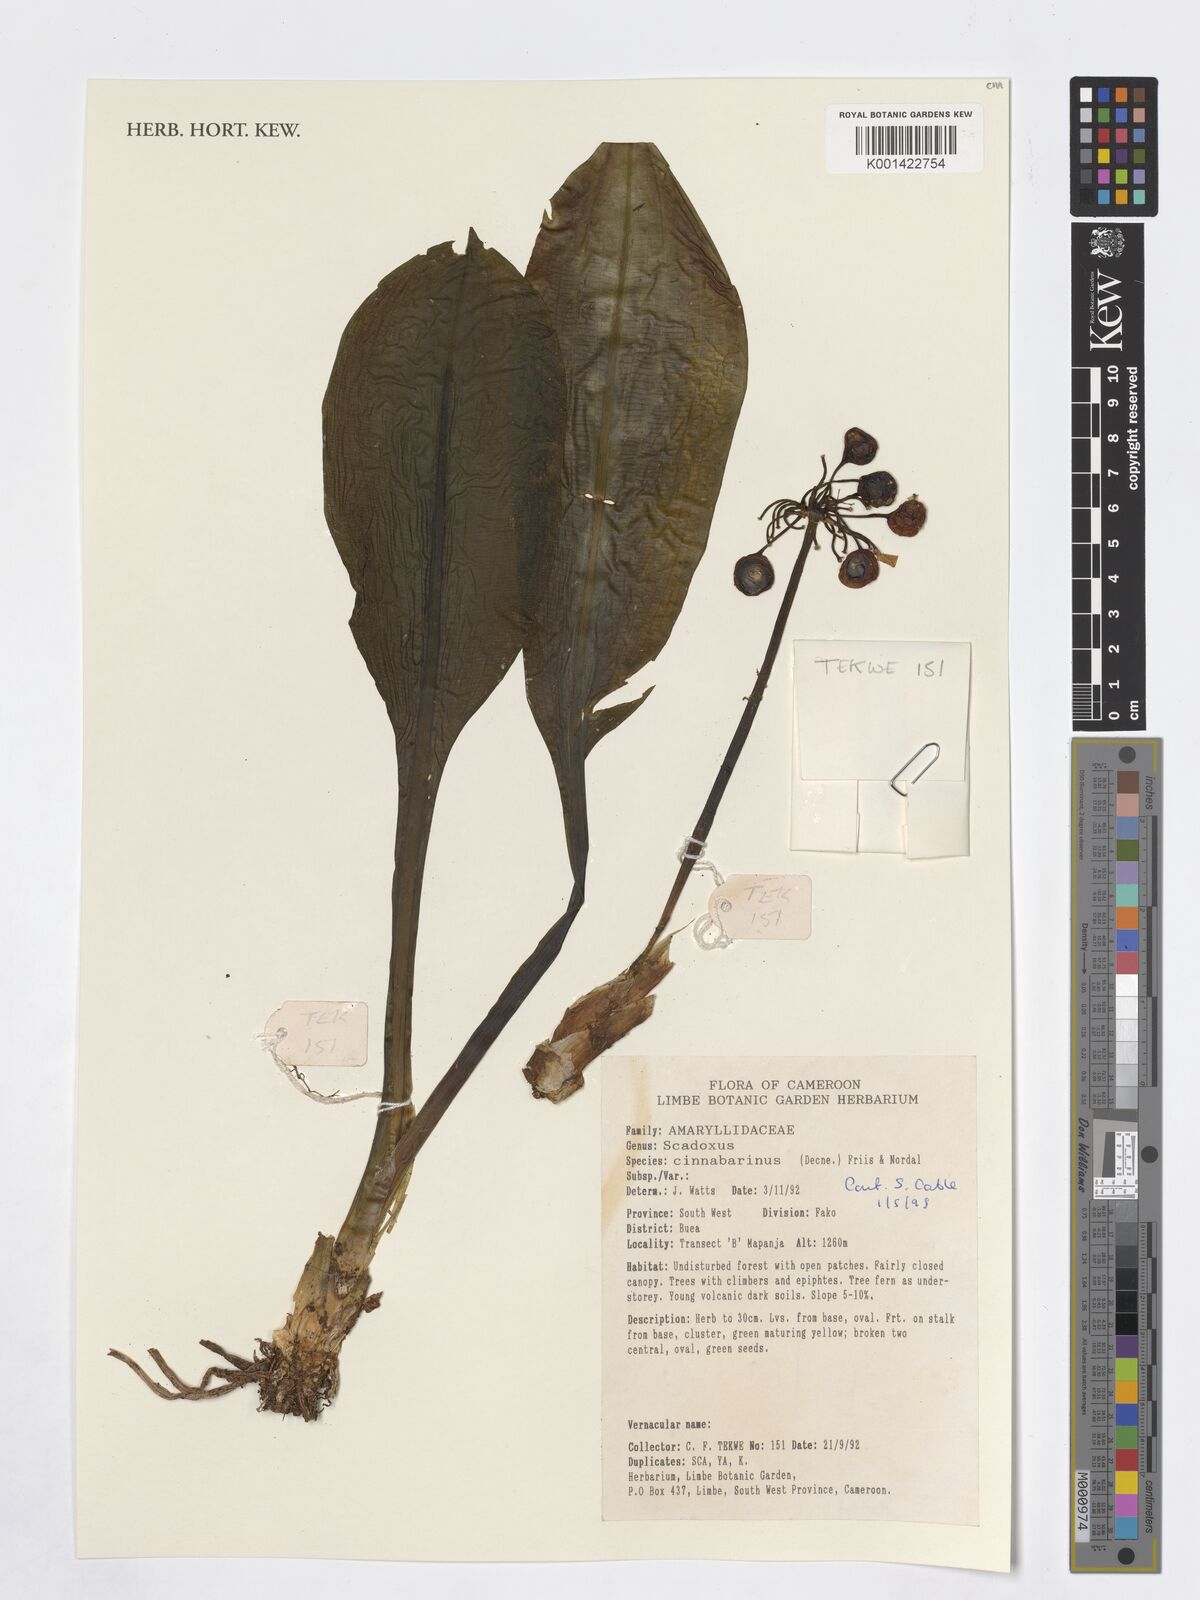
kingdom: Plantae
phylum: Tracheophyta
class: Liliopsida
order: Asparagales
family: Amaryllidaceae
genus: Scadoxus
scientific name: Scadoxus cinnabarinus
